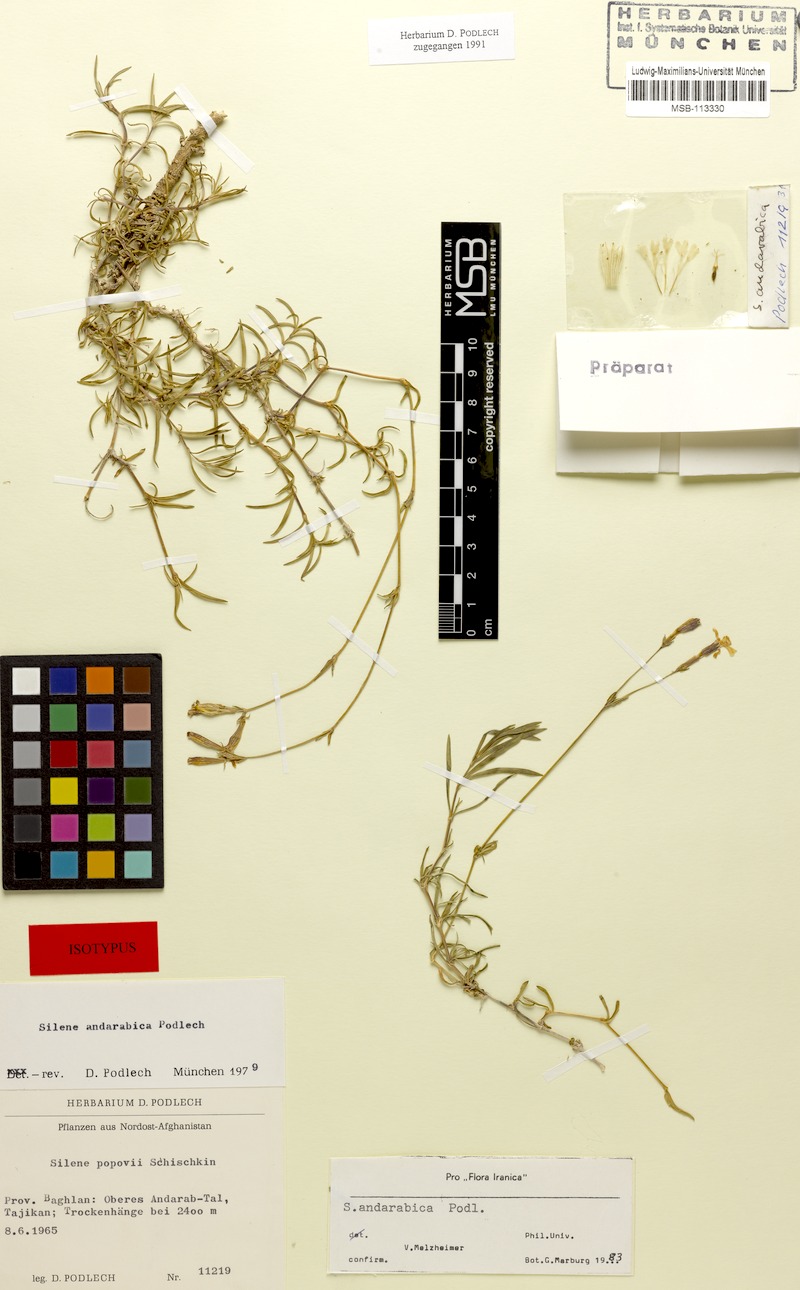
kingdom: Plantae
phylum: Tracheophyta
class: Magnoliopsida
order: Caryophyllales
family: Caryophyllaceae
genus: Silene
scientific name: Silene andarabica
